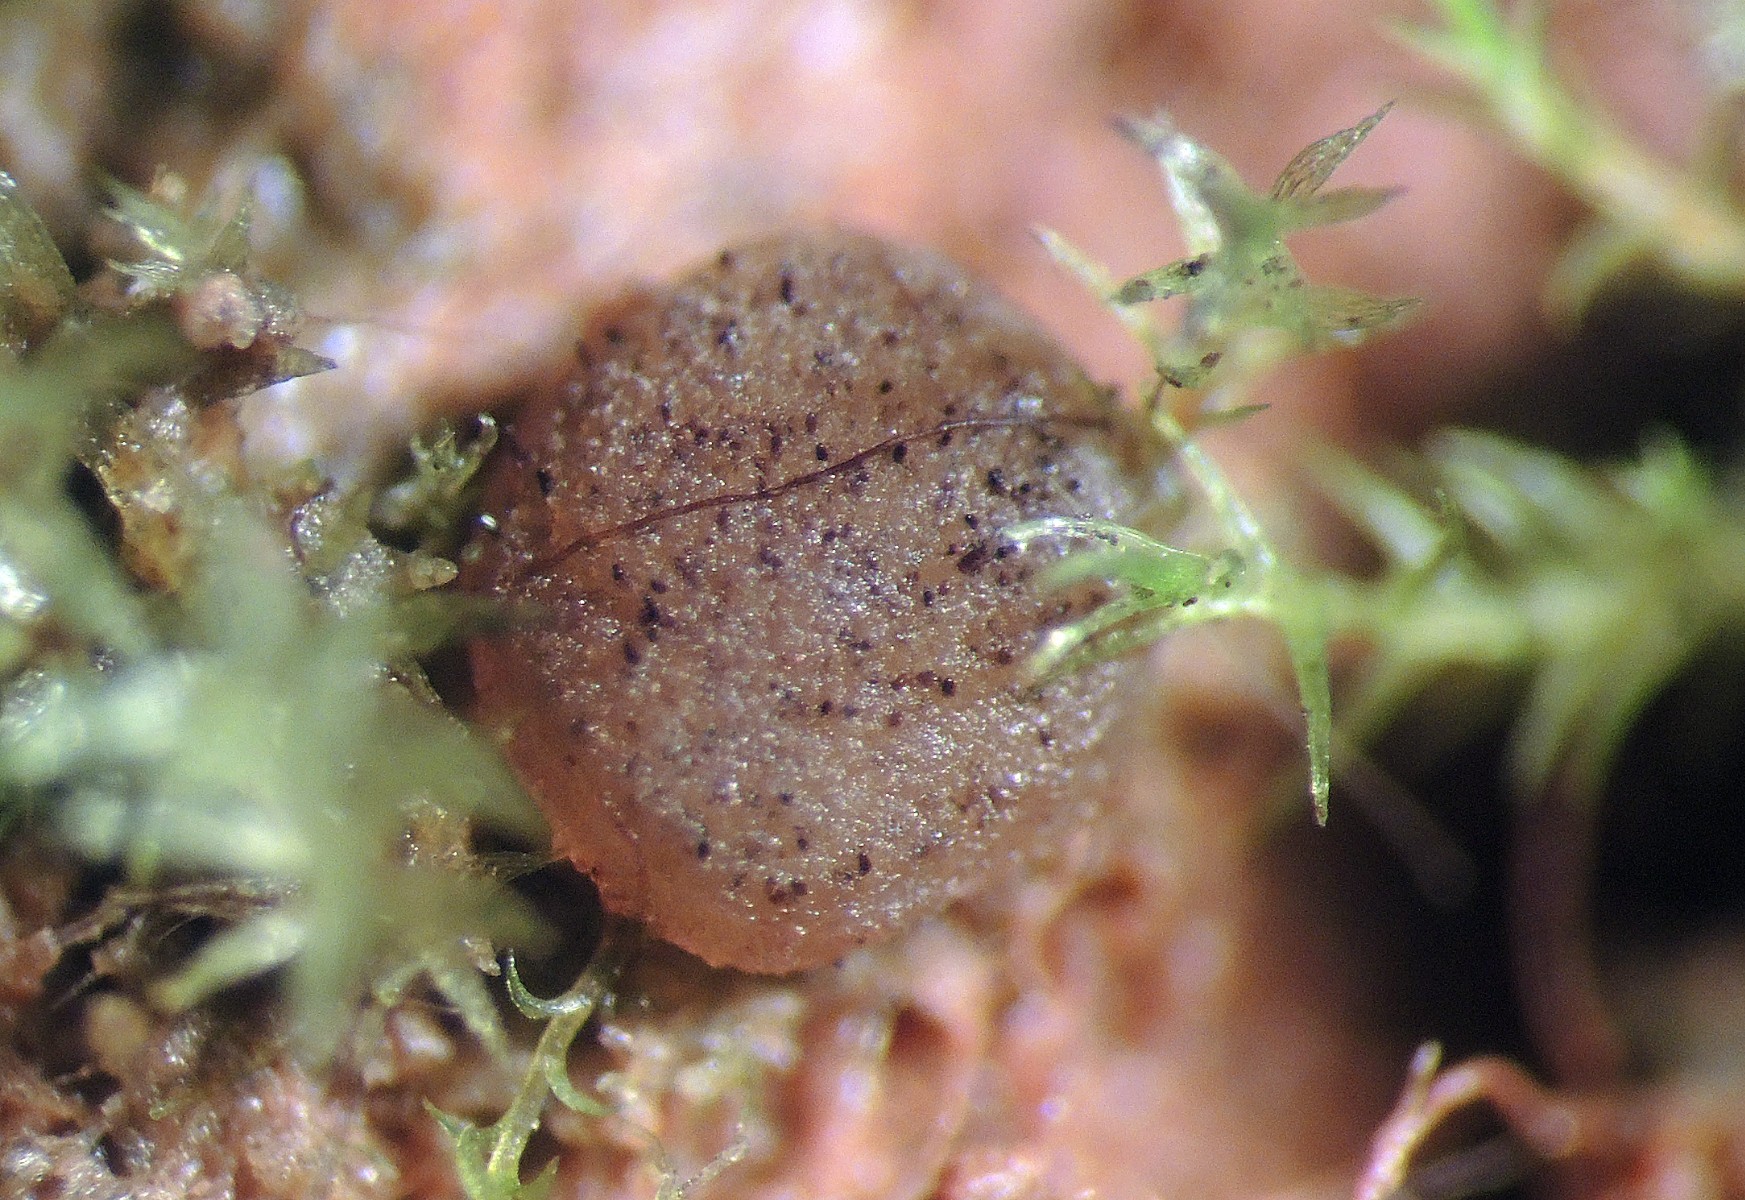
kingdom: Fungi
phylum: Ascomycota
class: Pezizomycetes
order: Pezizales
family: Ascobolaceae
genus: Ascobolus
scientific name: Ascobolus behnitziensis
